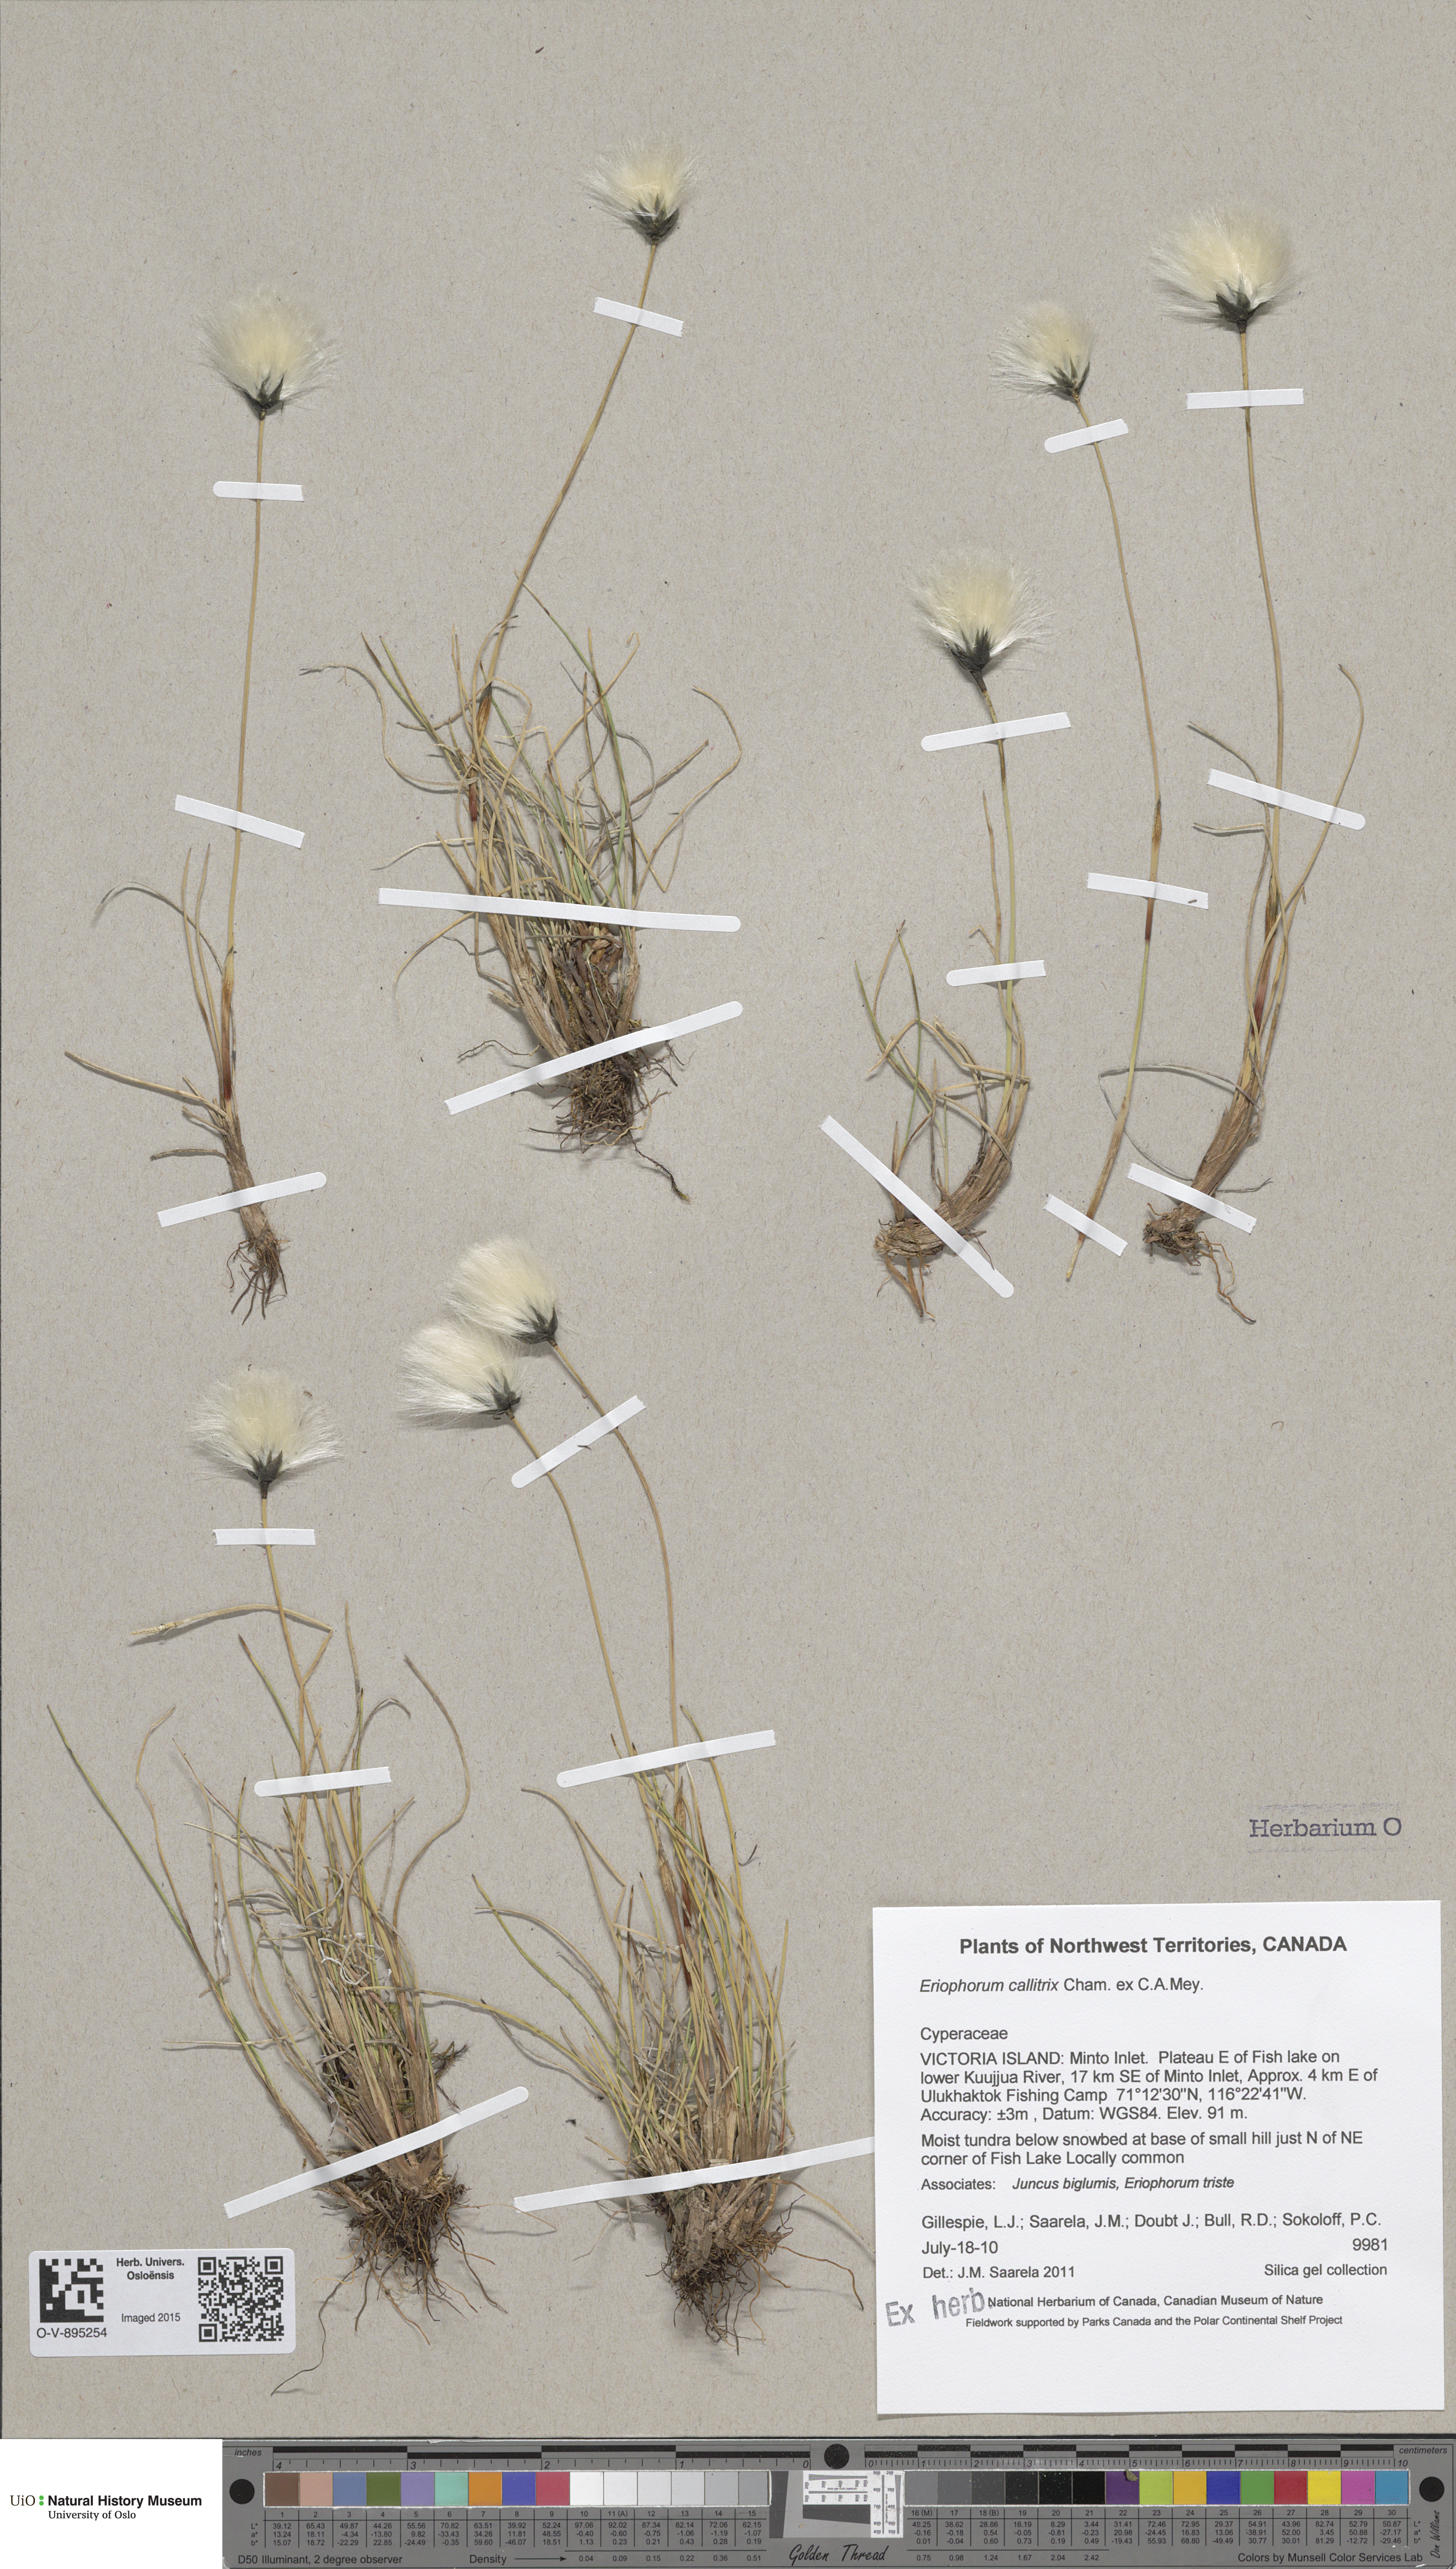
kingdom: Plantae
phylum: Tracheophyta
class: Liliopsida
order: Poales
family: Cyperaceae
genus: Eriophorum
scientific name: Eriophorum callitrix
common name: Arctic cottongrass
